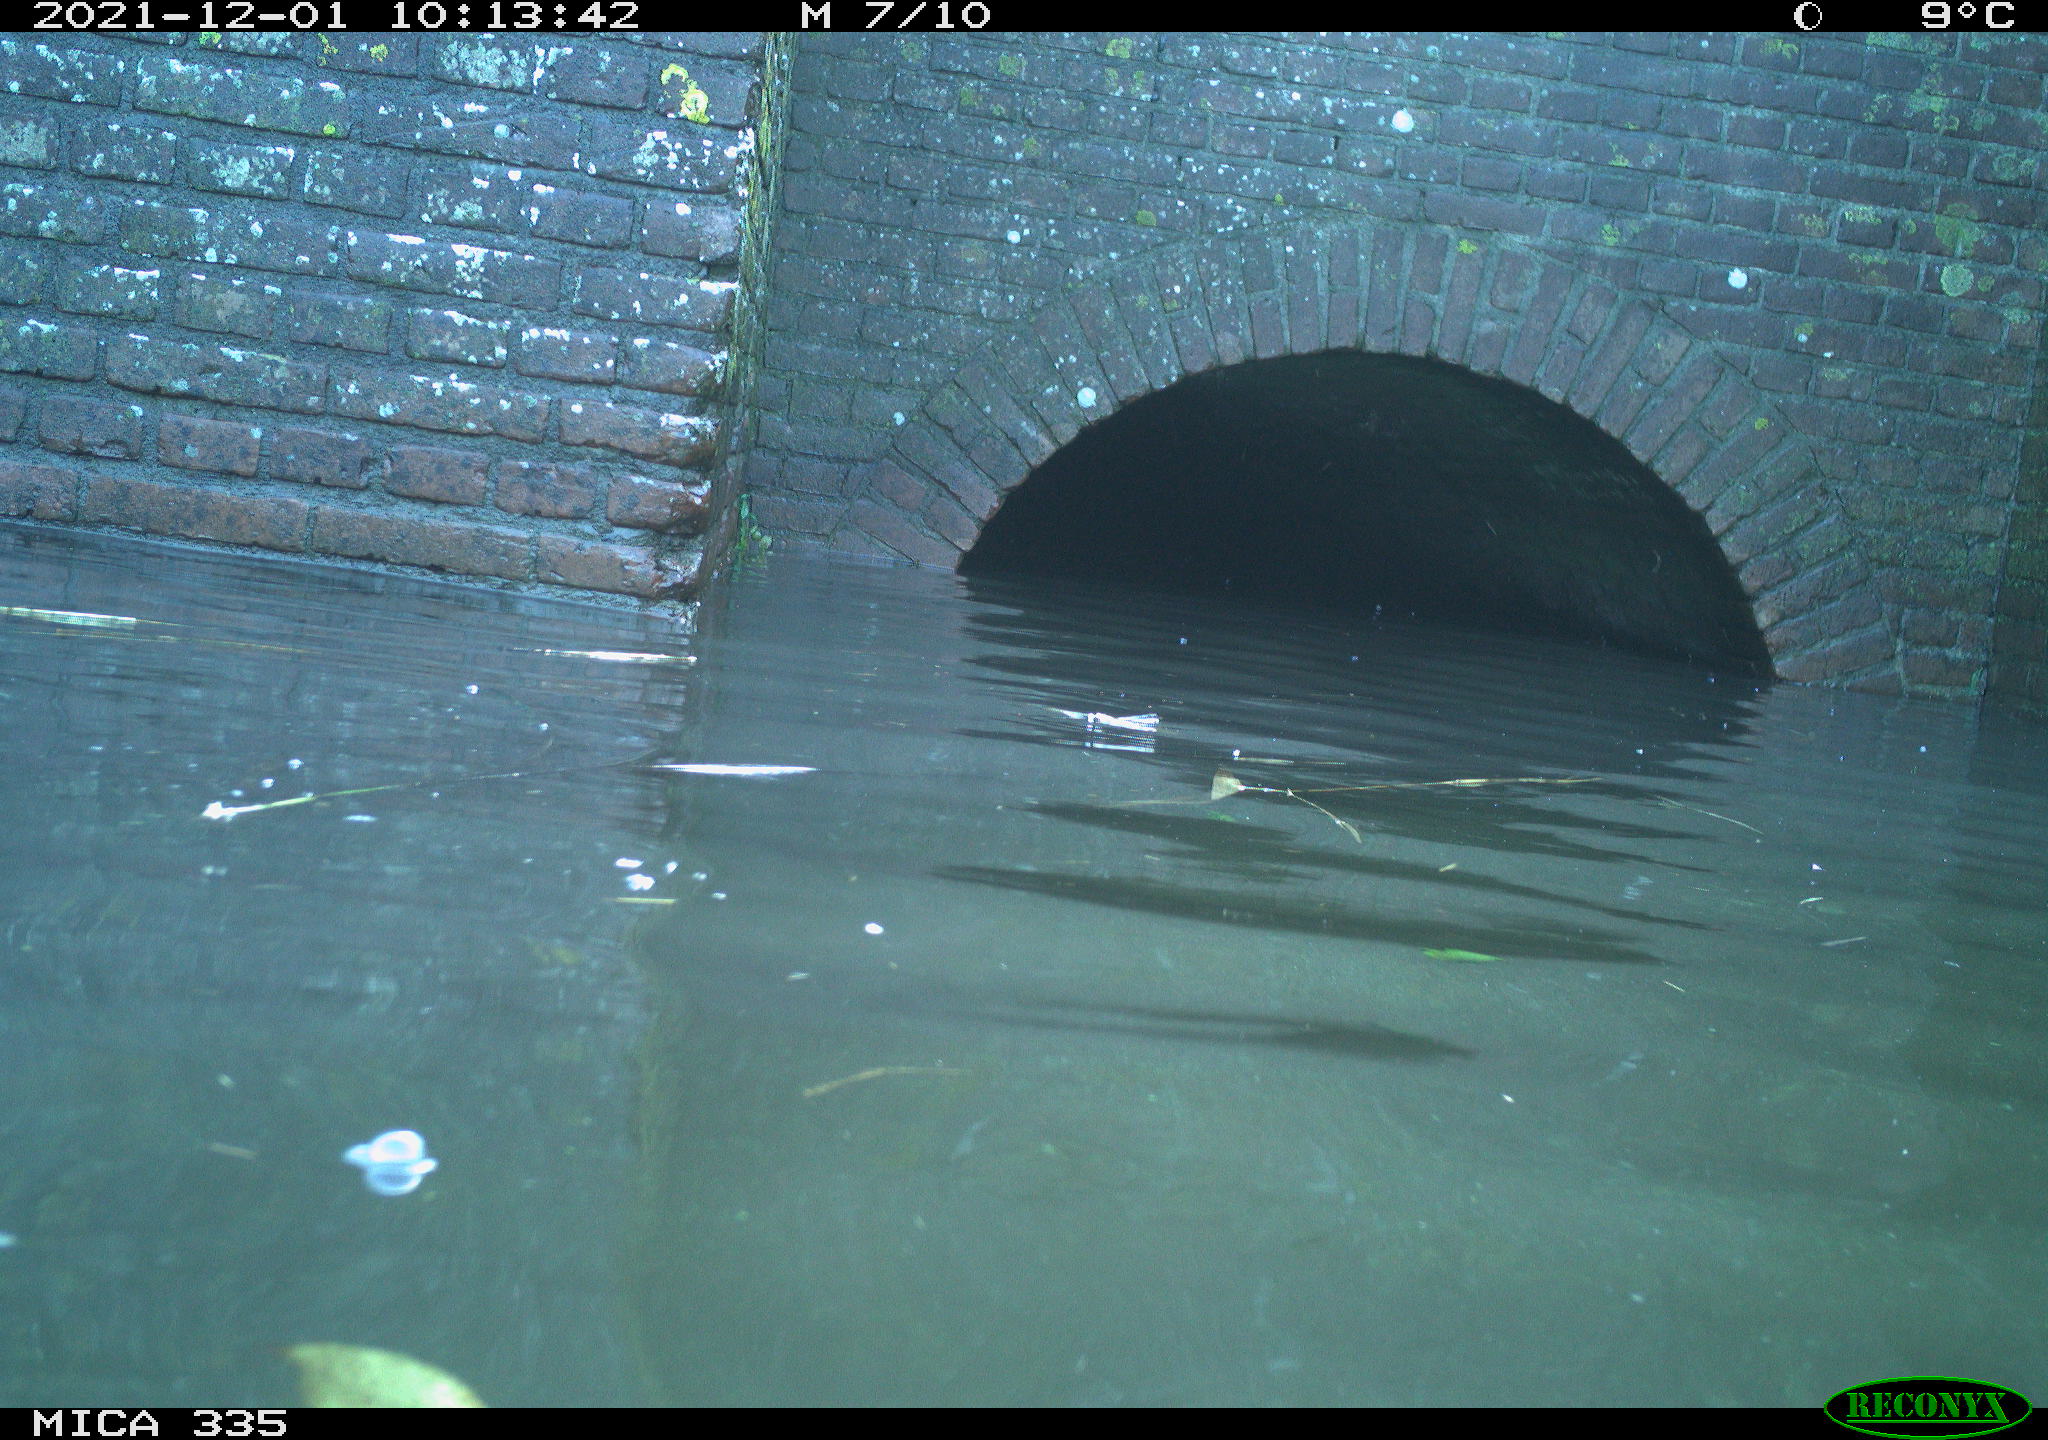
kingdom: Animalia
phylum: Chordata
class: Aves
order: Anseriformes
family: Anatidae
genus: Anas
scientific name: Anas platyrhynchos
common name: Mallard
